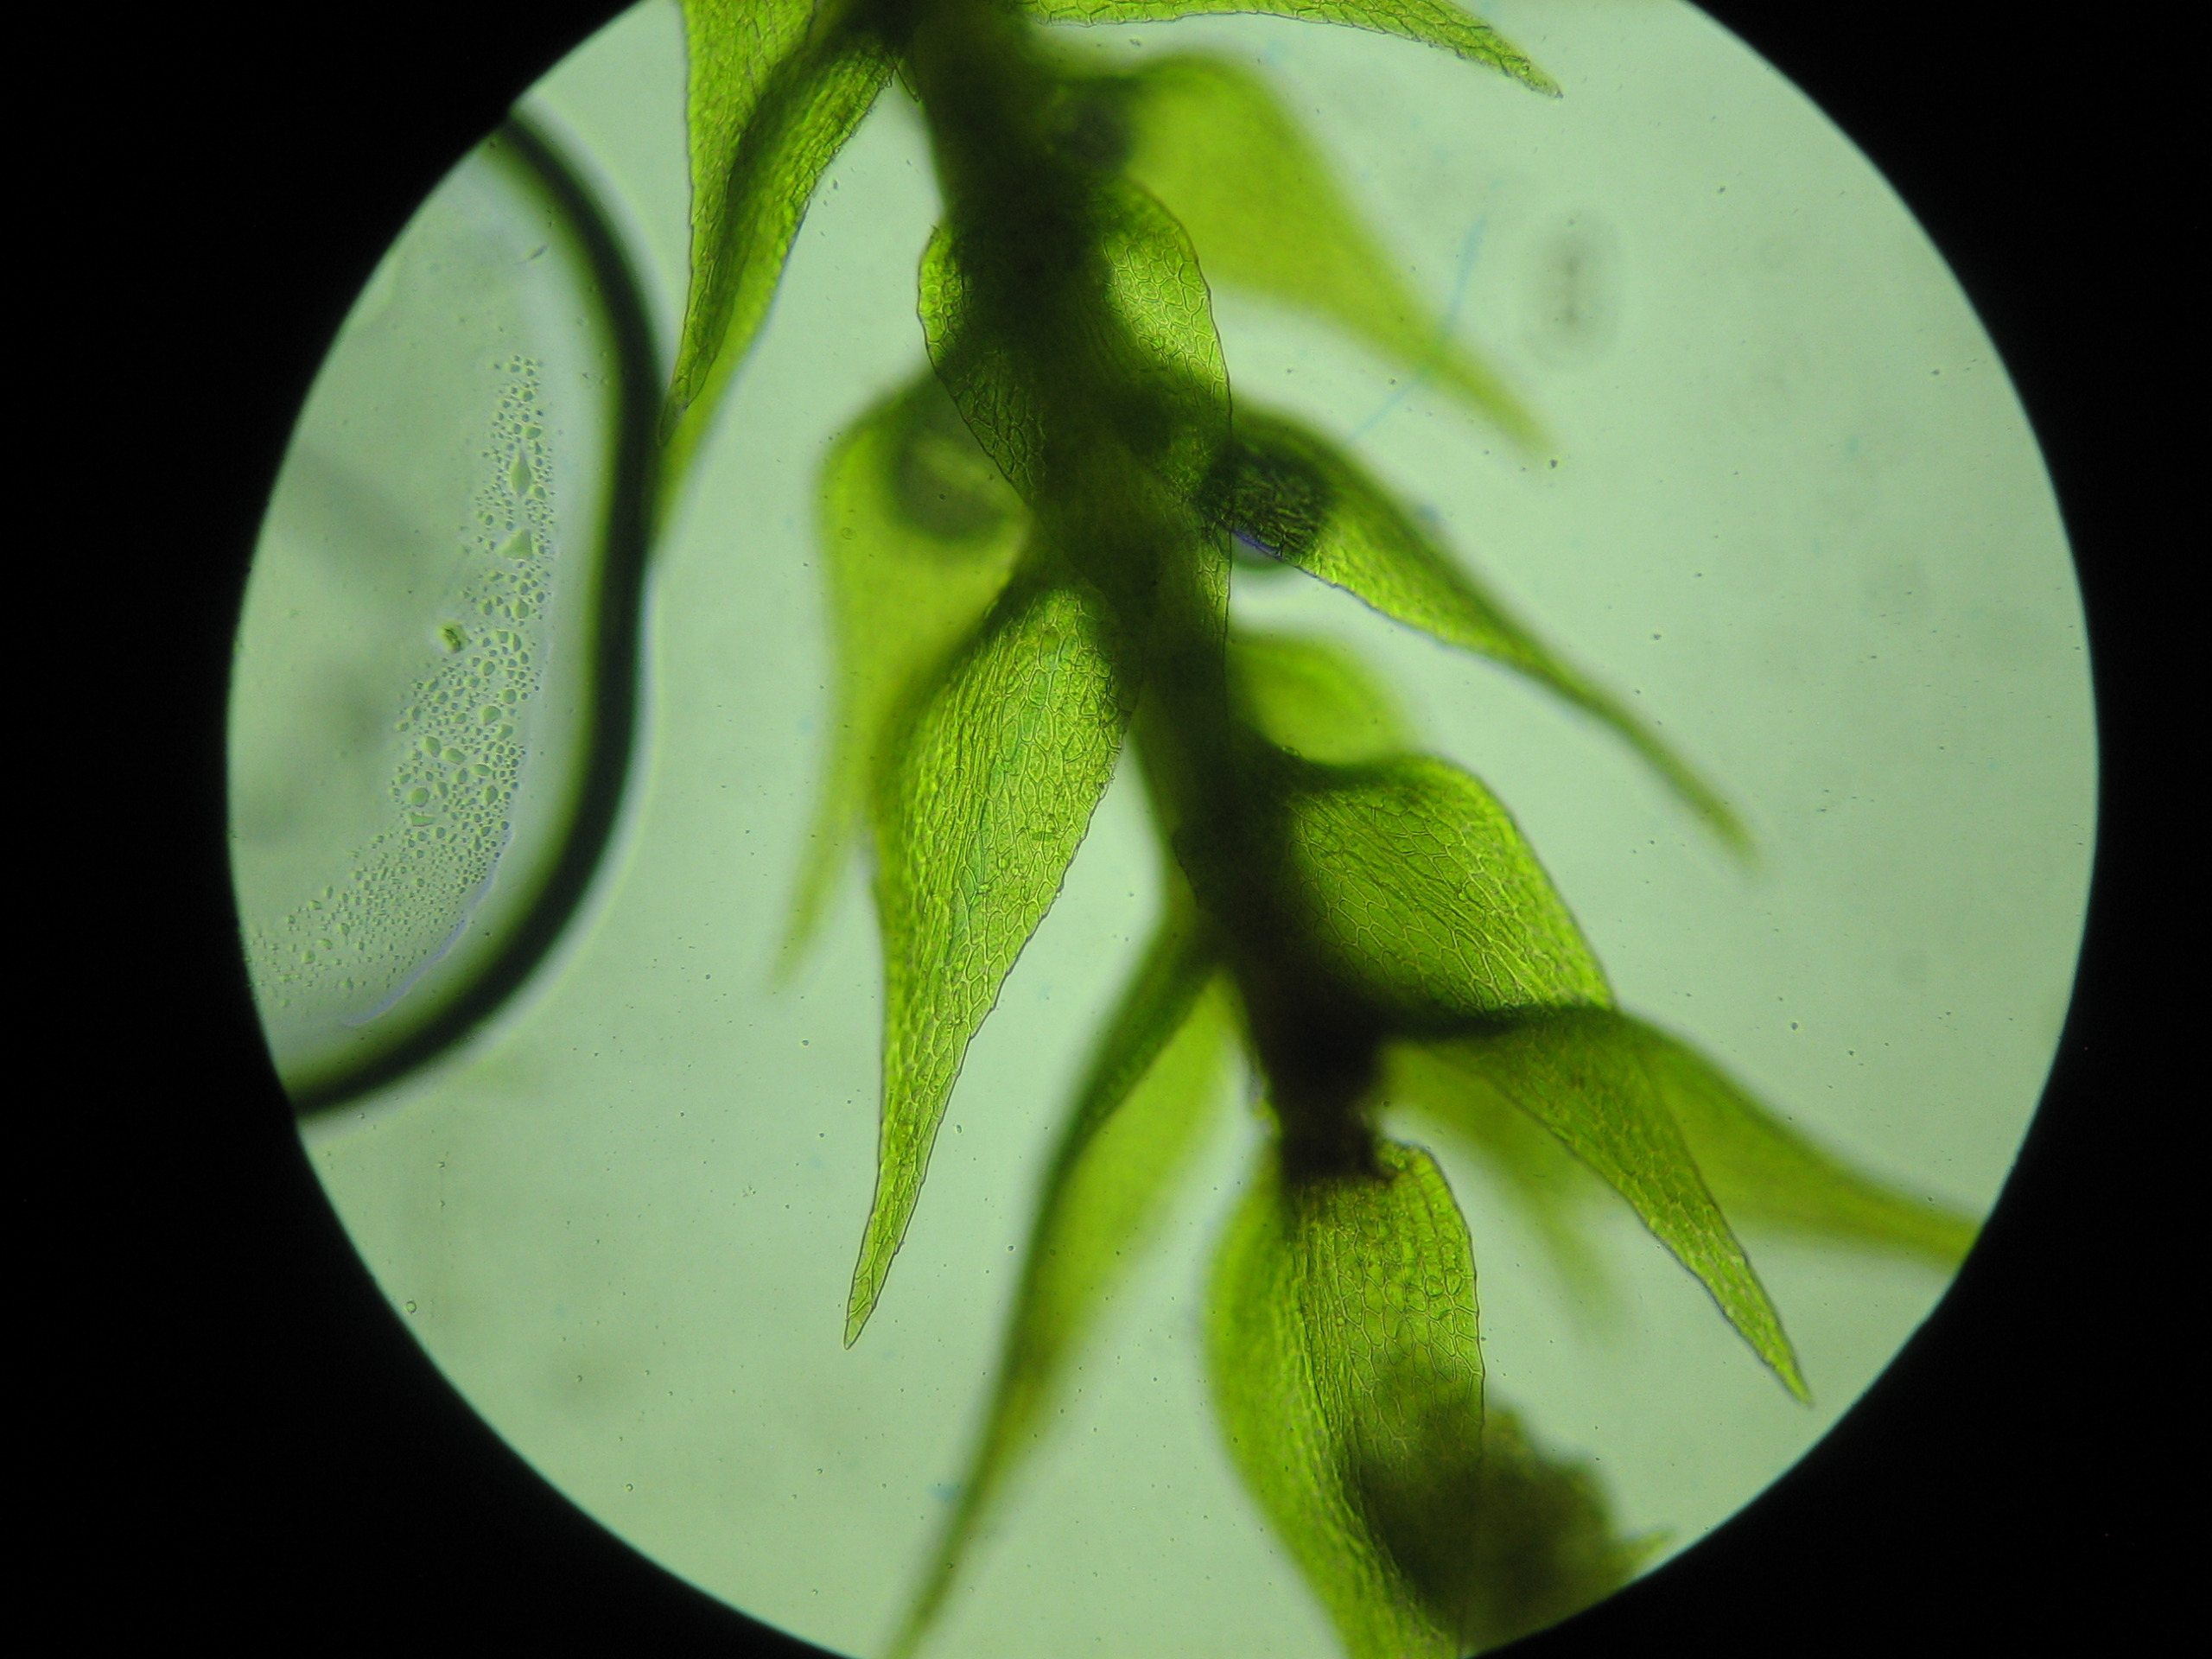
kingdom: Plantae
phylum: Bryophyta
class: Bryopsida
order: Hypnales
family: Amblystegiaceae
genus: Amblystegium
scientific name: Amblystegium serpens
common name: Almindelig krybmos
